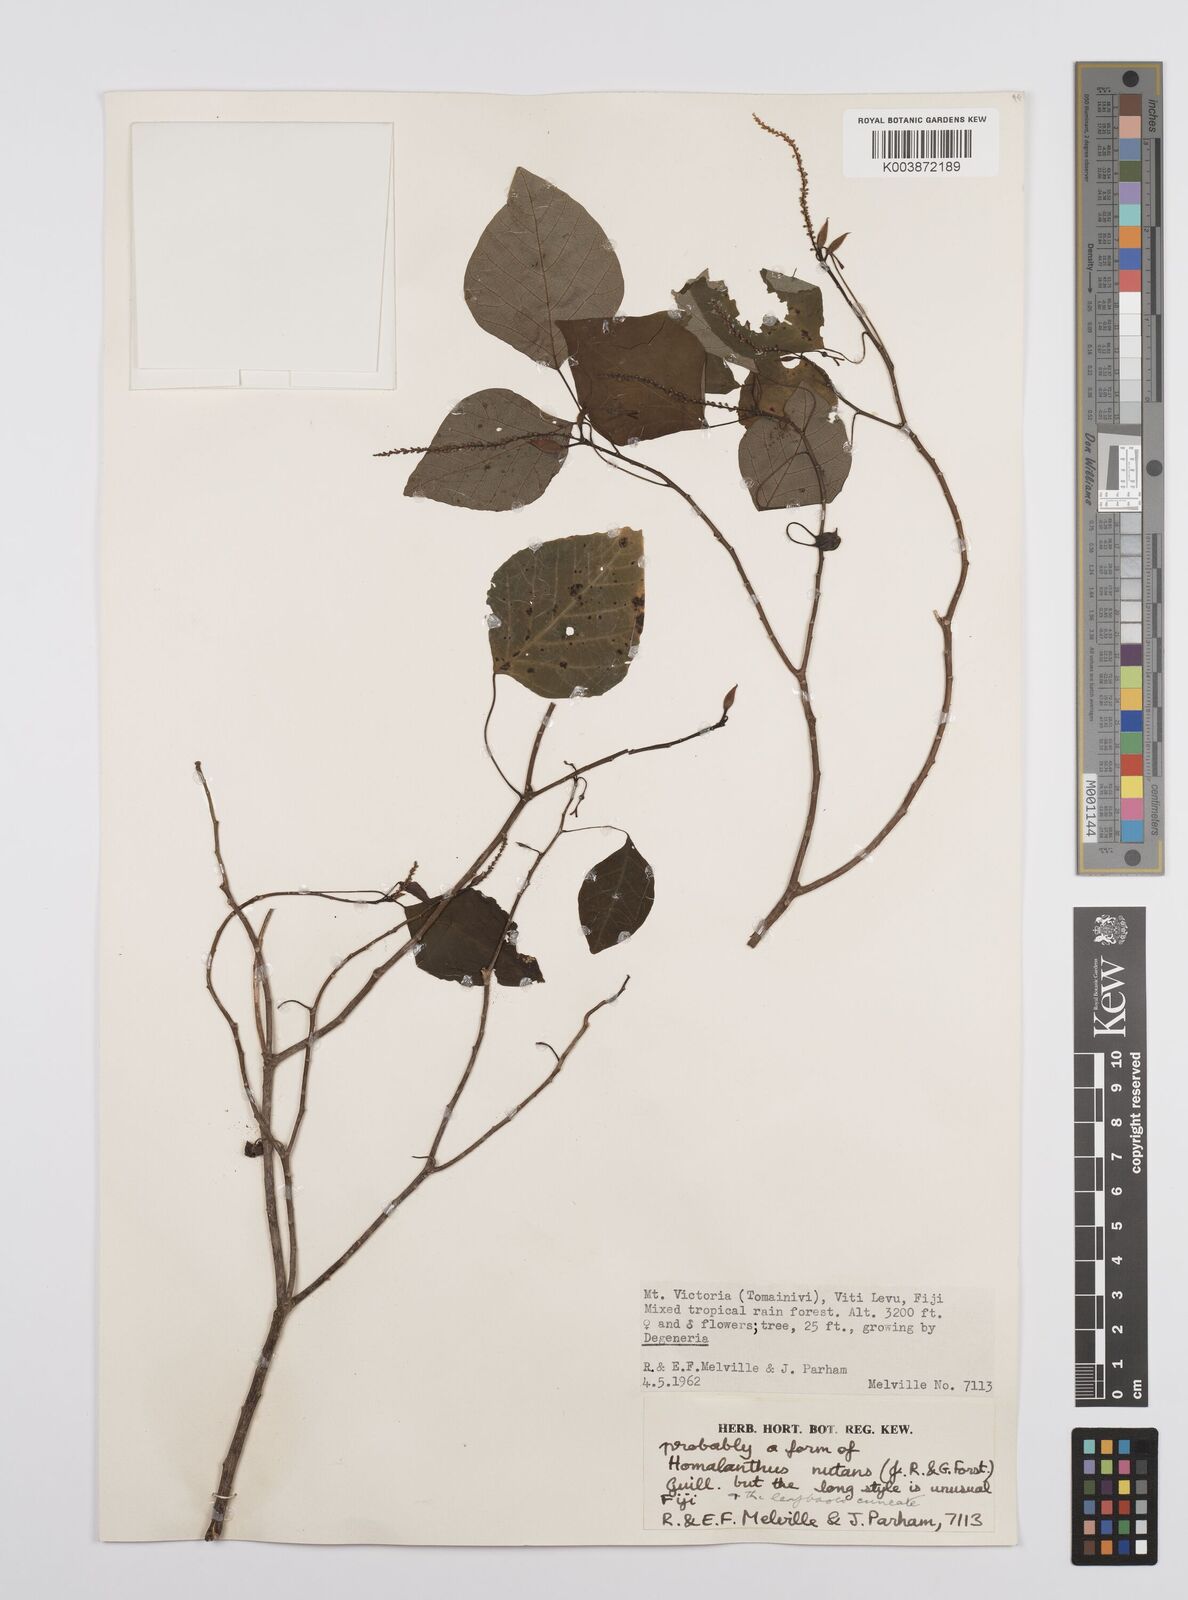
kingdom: Plantae
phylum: Tracheophyta
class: Magnoliopsida
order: Malpighiales
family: Euphorbiaceae
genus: Homalanthus
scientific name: Homalanthus nutans
